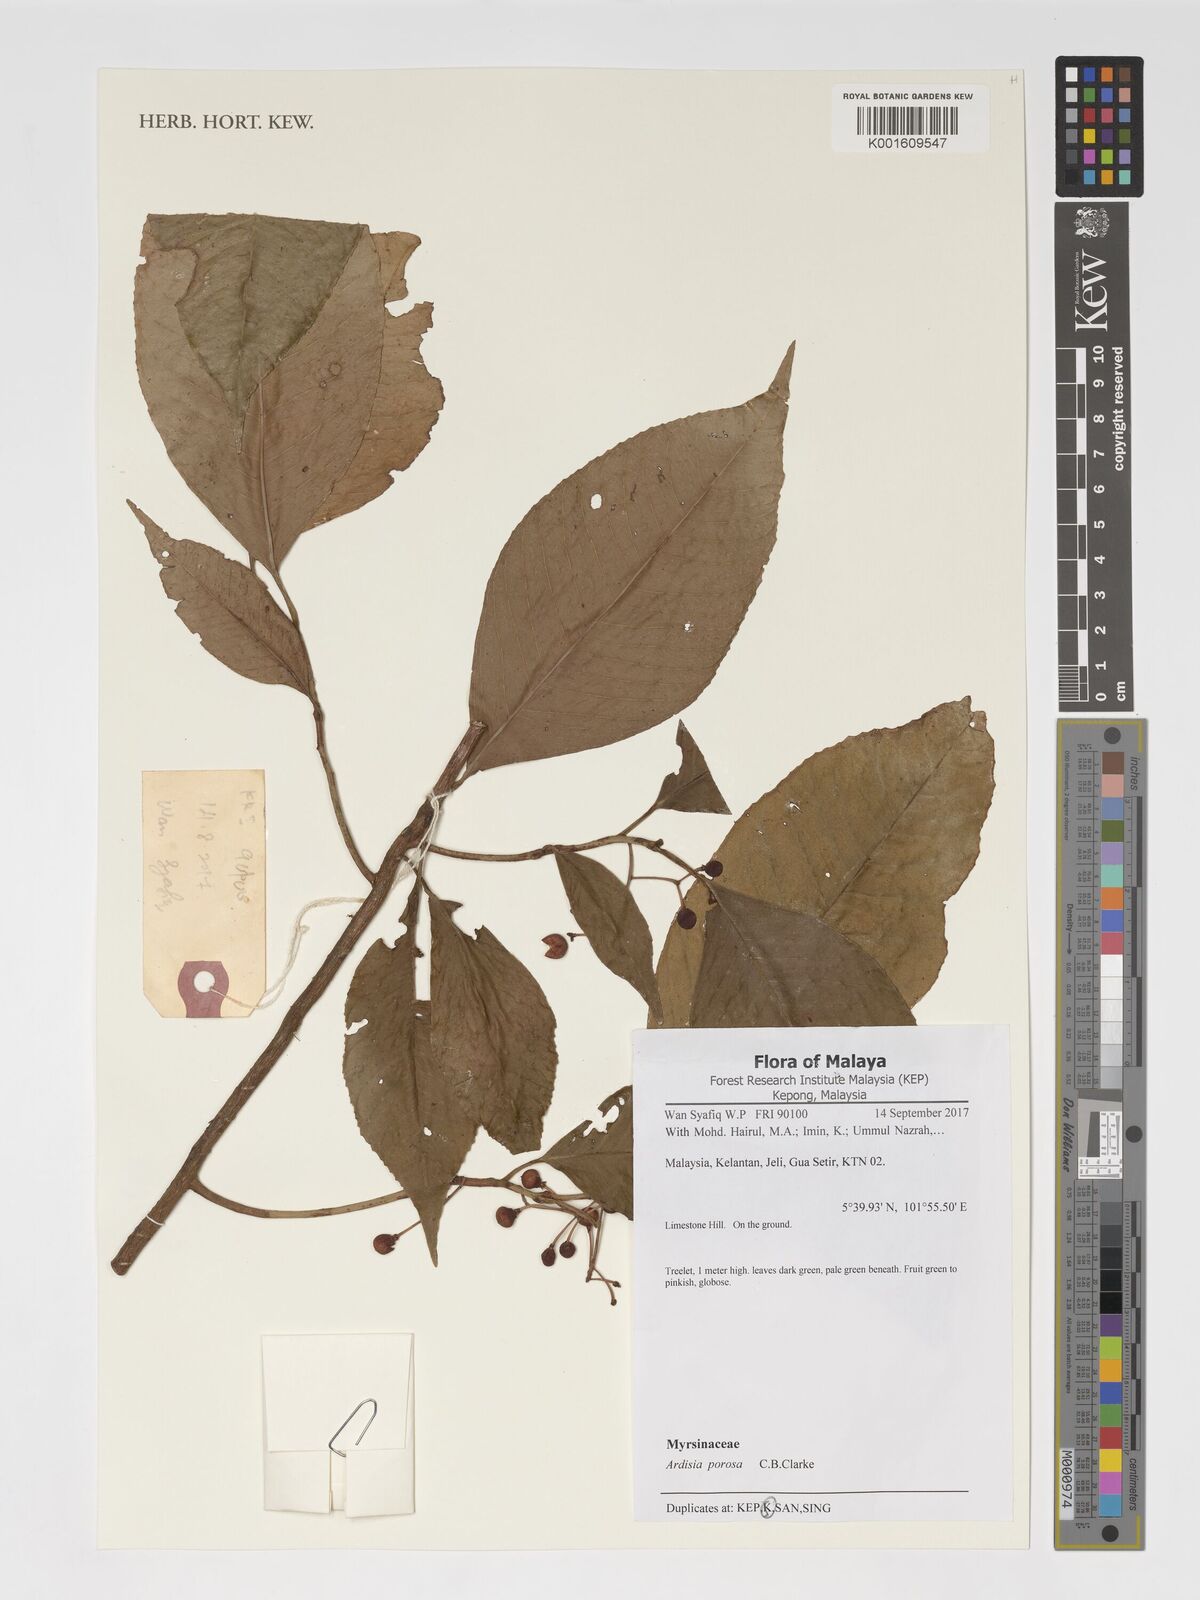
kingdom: Plantae
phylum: Tracheophyta
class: Magnoliopsida
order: Ericales
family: Primulaceae
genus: Ardisia
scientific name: Ardisia porosa
